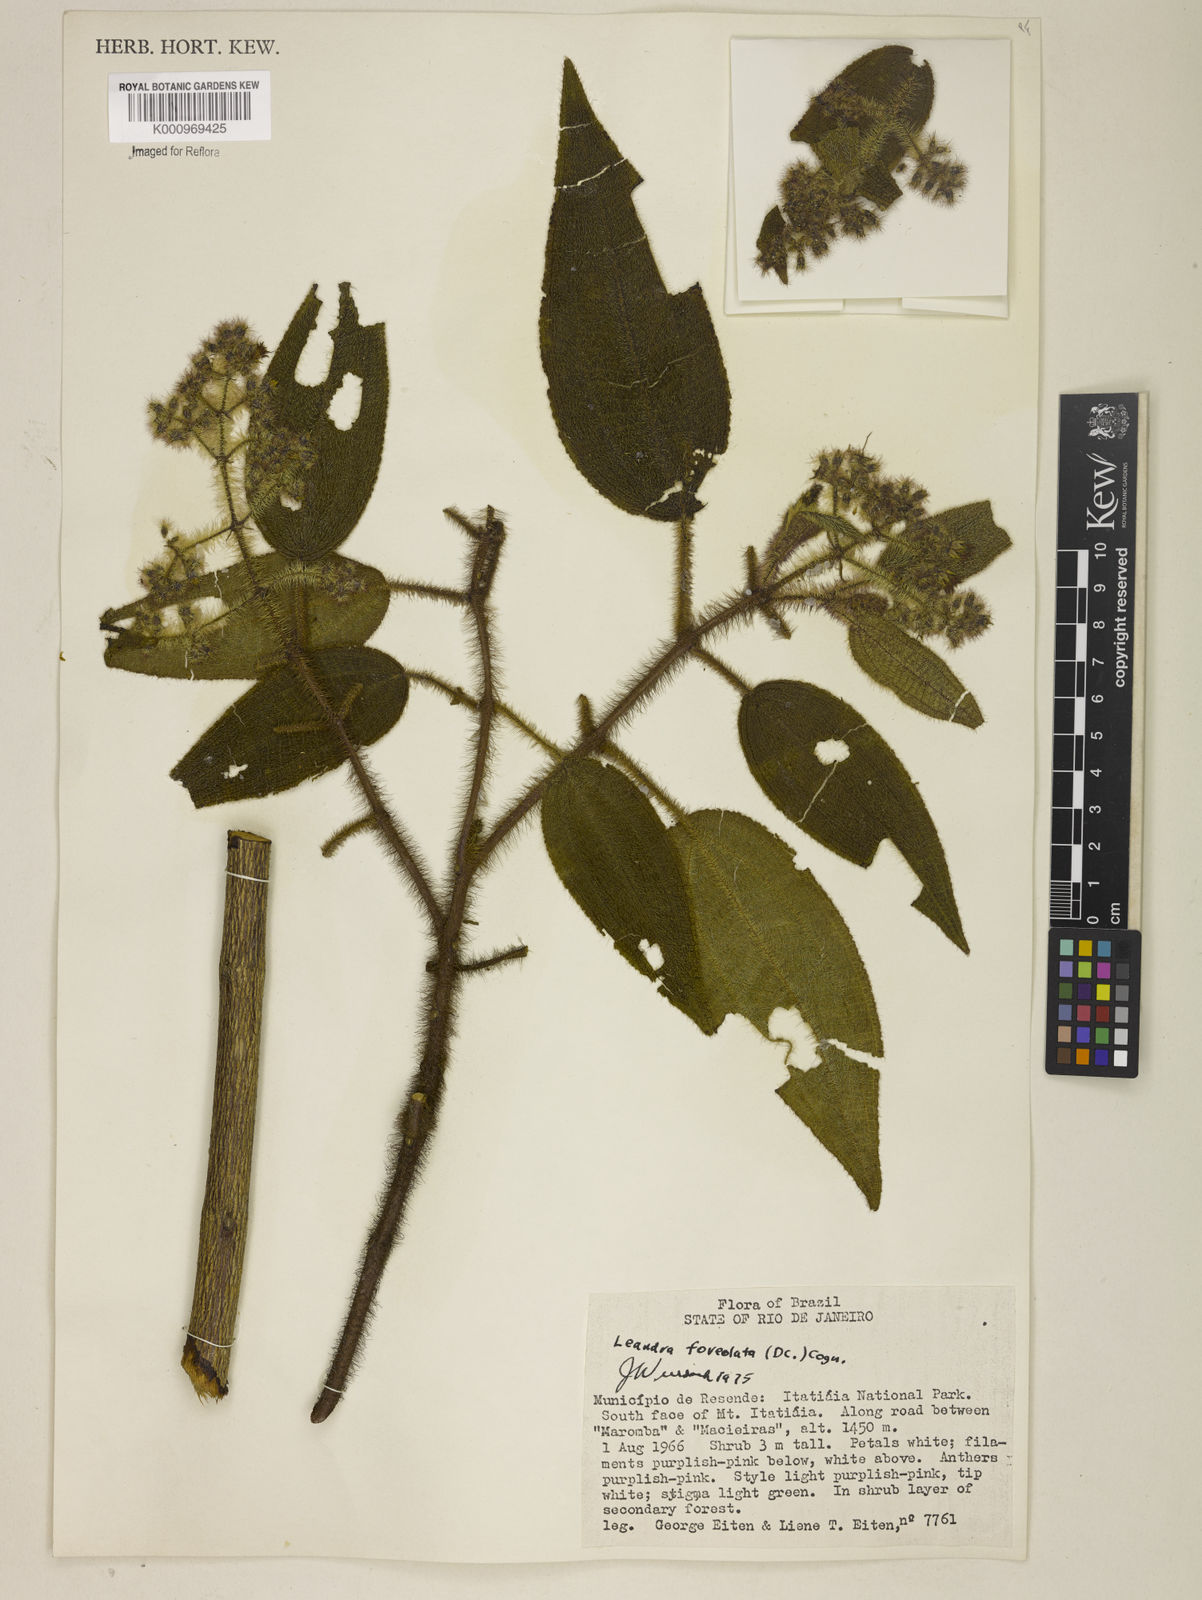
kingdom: Plantae
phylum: Tracheophyta
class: Magnoliopsida
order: Myrtales
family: Melastomataceae
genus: Miconia
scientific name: Miconia leafoveolata
